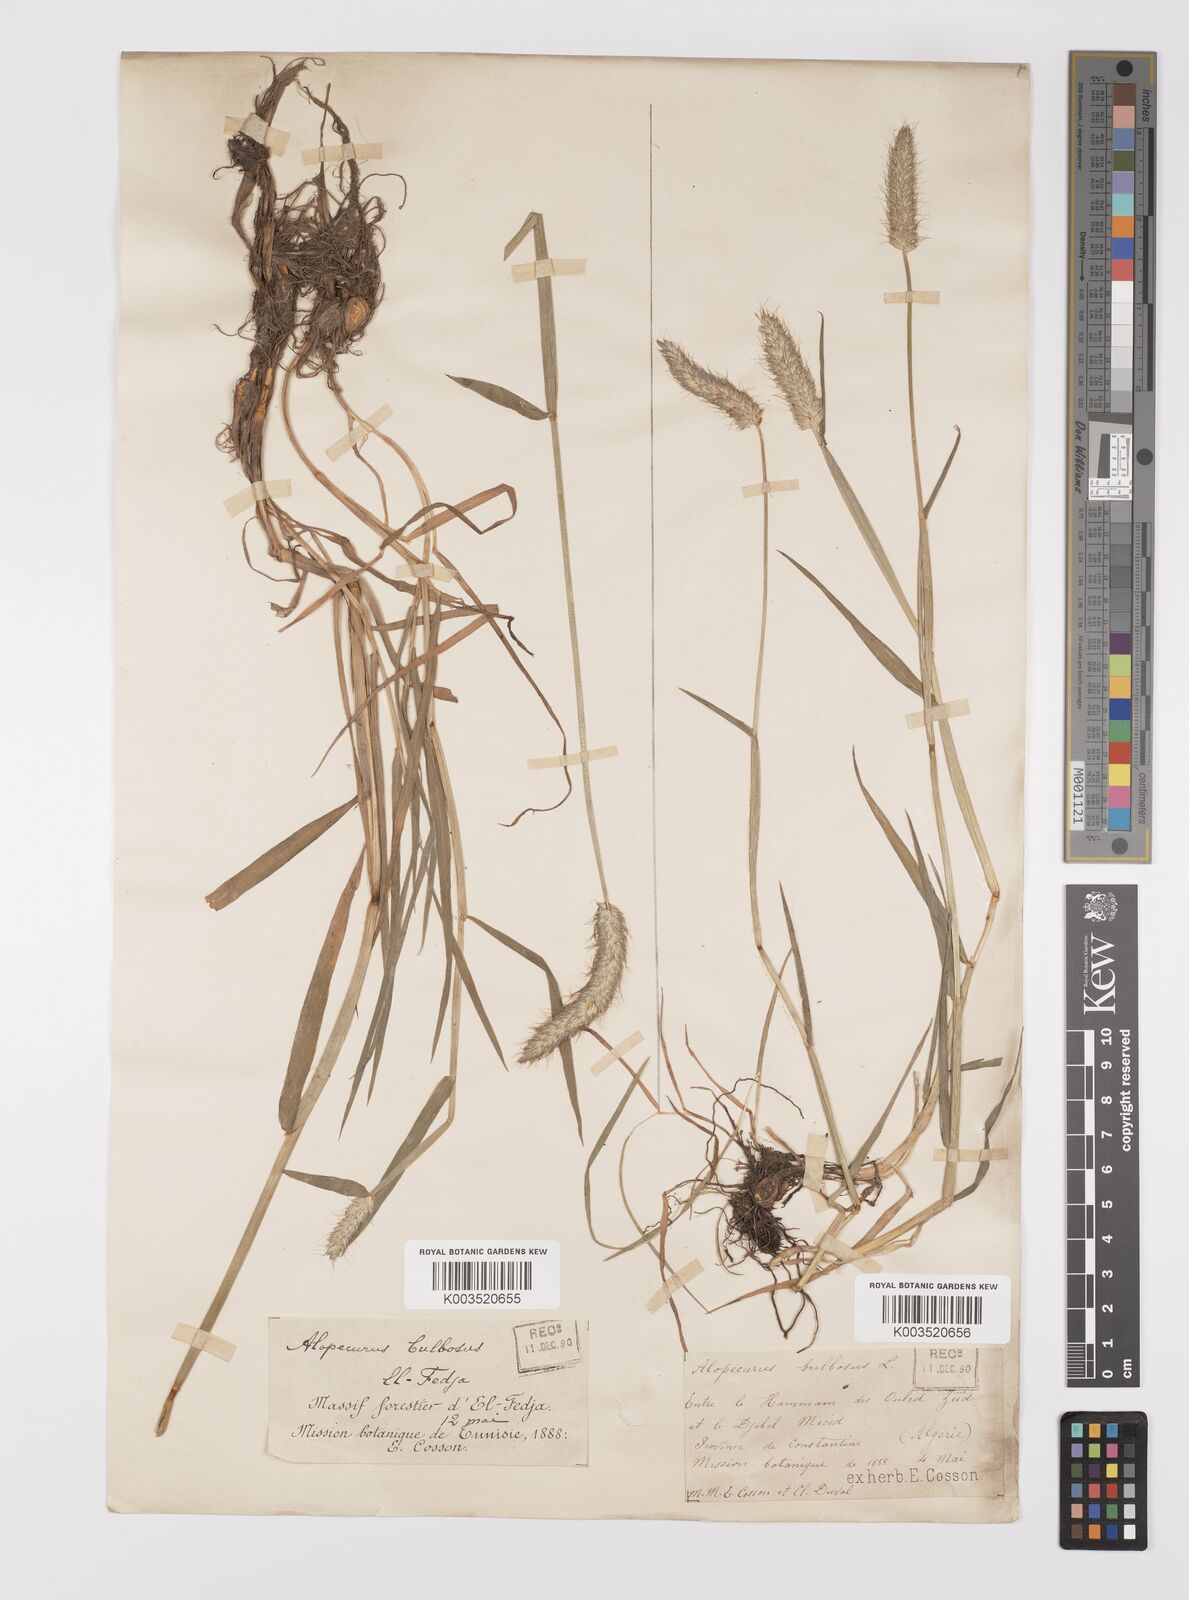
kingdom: Plantae
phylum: Tracheophyta
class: Liliopsida
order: Poales
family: Poaceae
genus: Alopecurus
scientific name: Alopecurus bulbosus
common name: Bulbous foxtail
